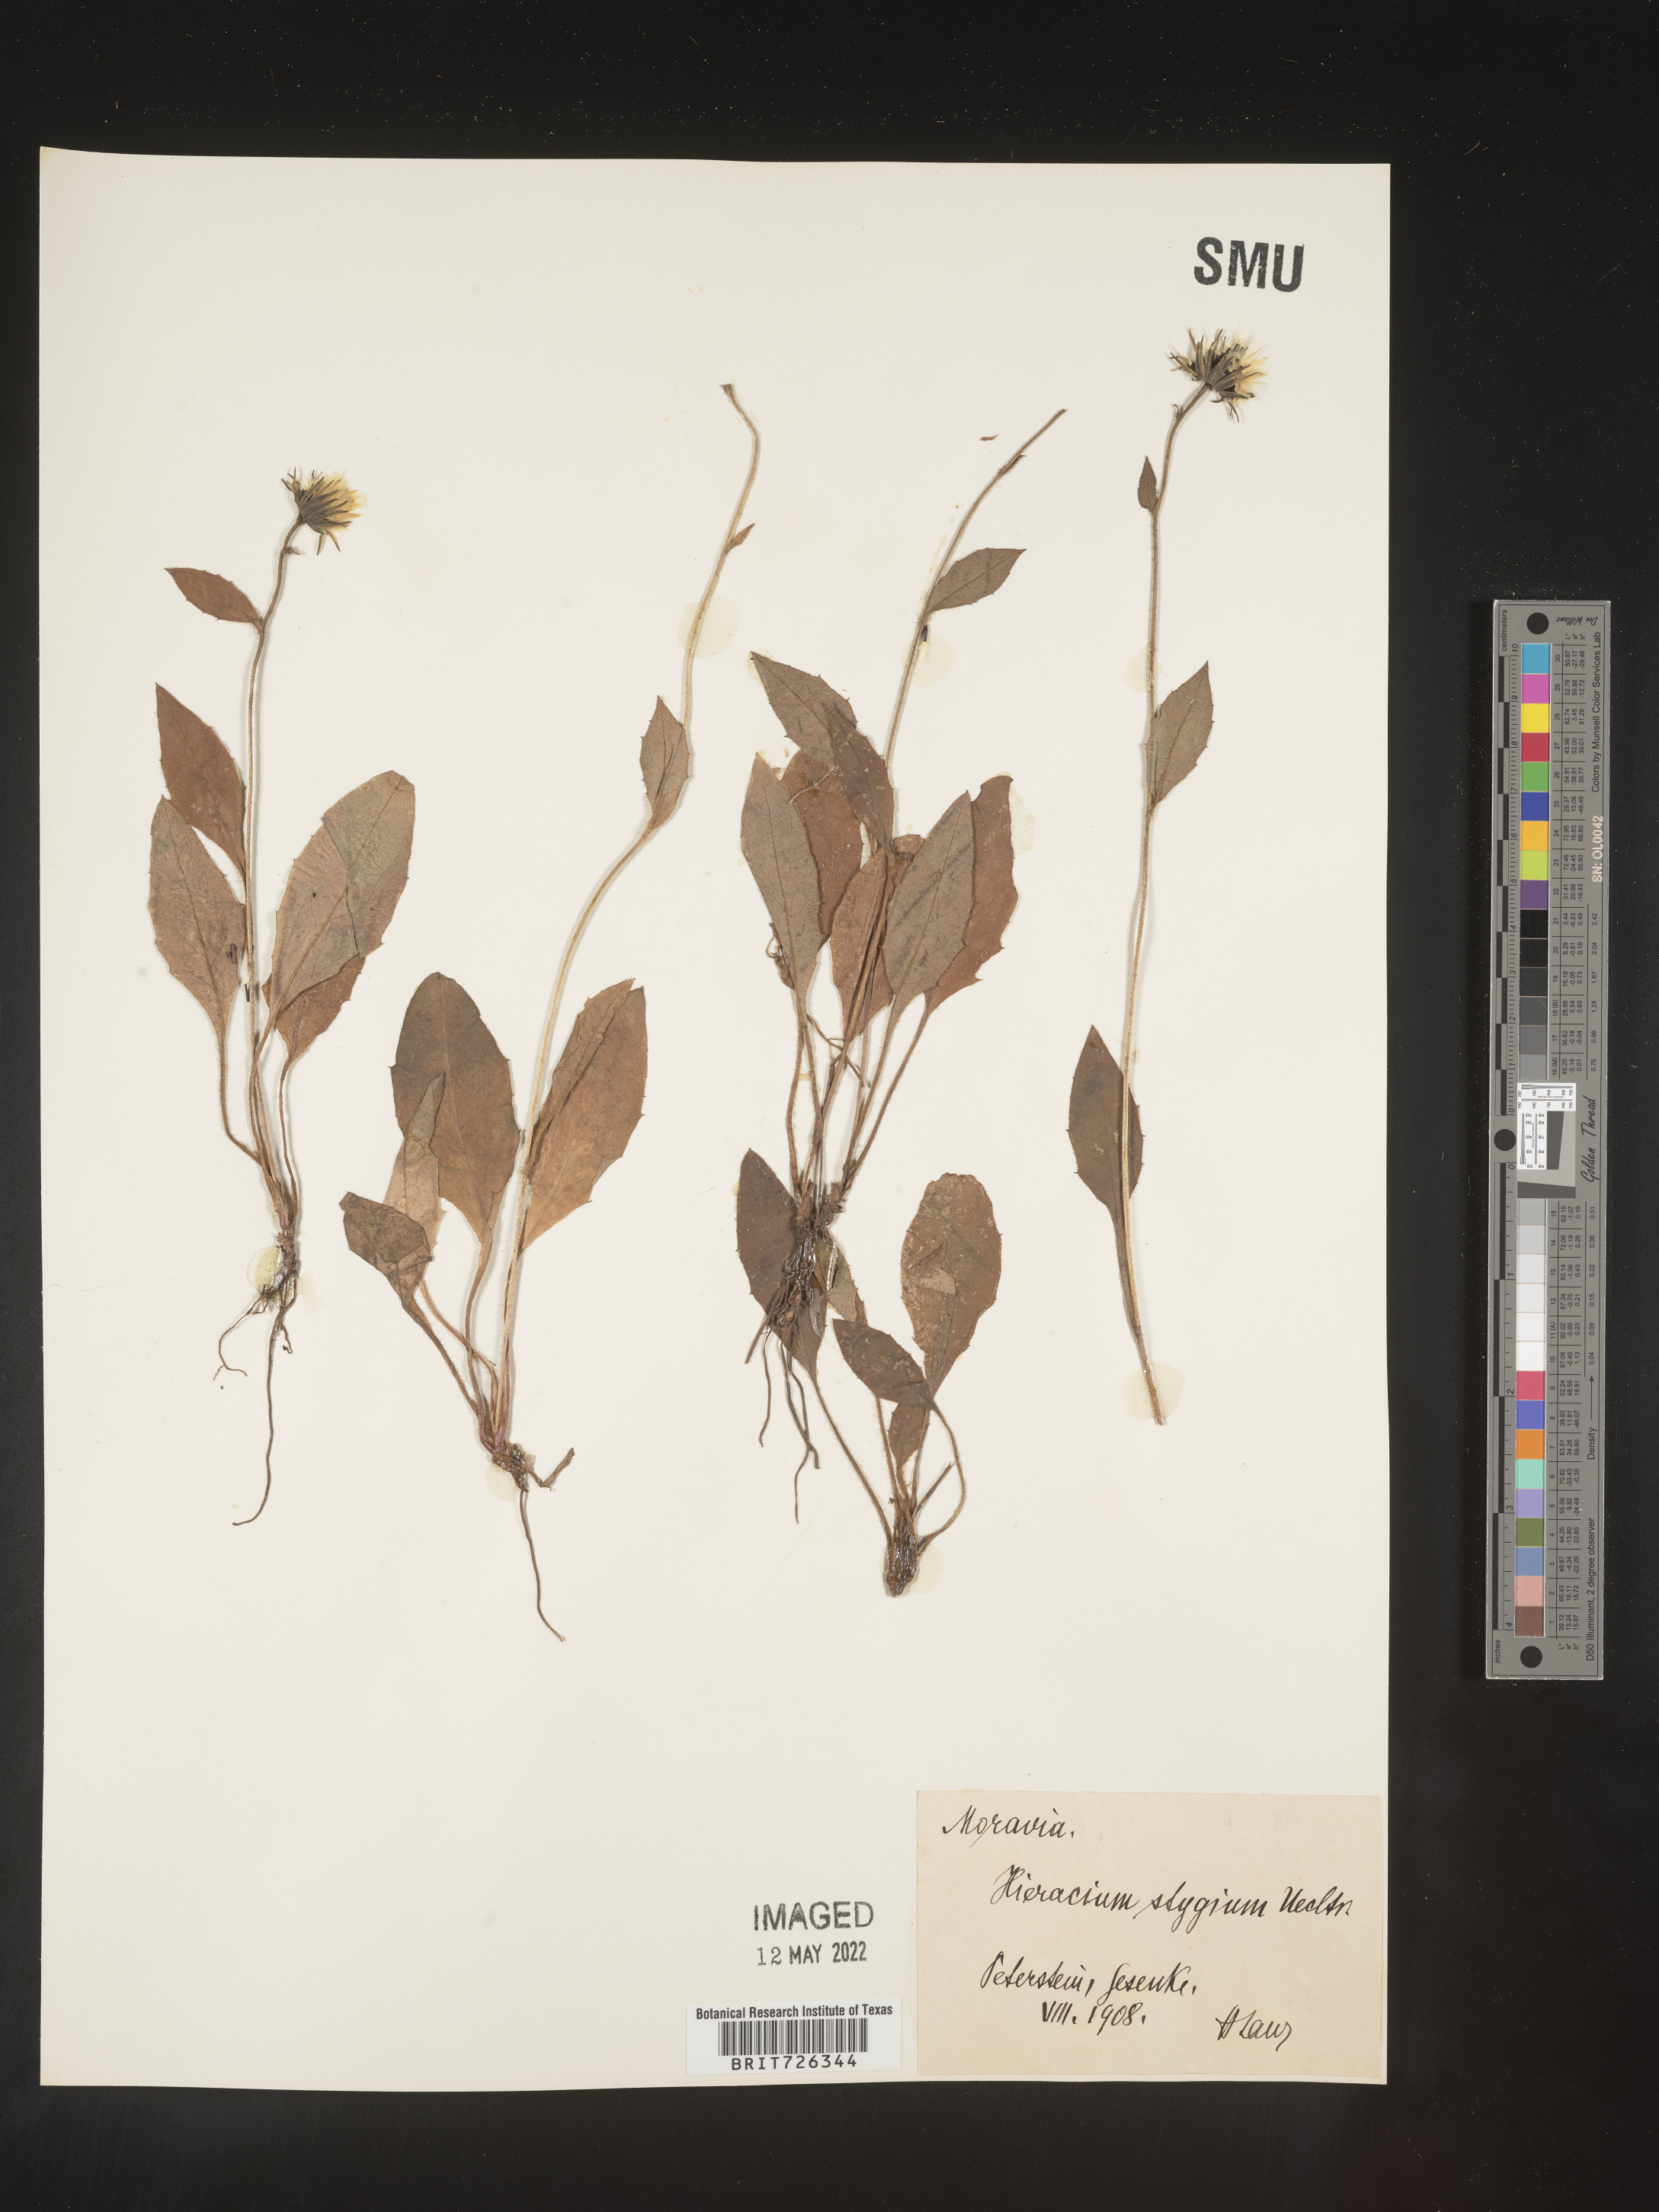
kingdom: Plantae
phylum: Tracheophyta
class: Magnoliopsida
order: Asterales
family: Asteraceae
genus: Hieracium
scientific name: Hieracium
